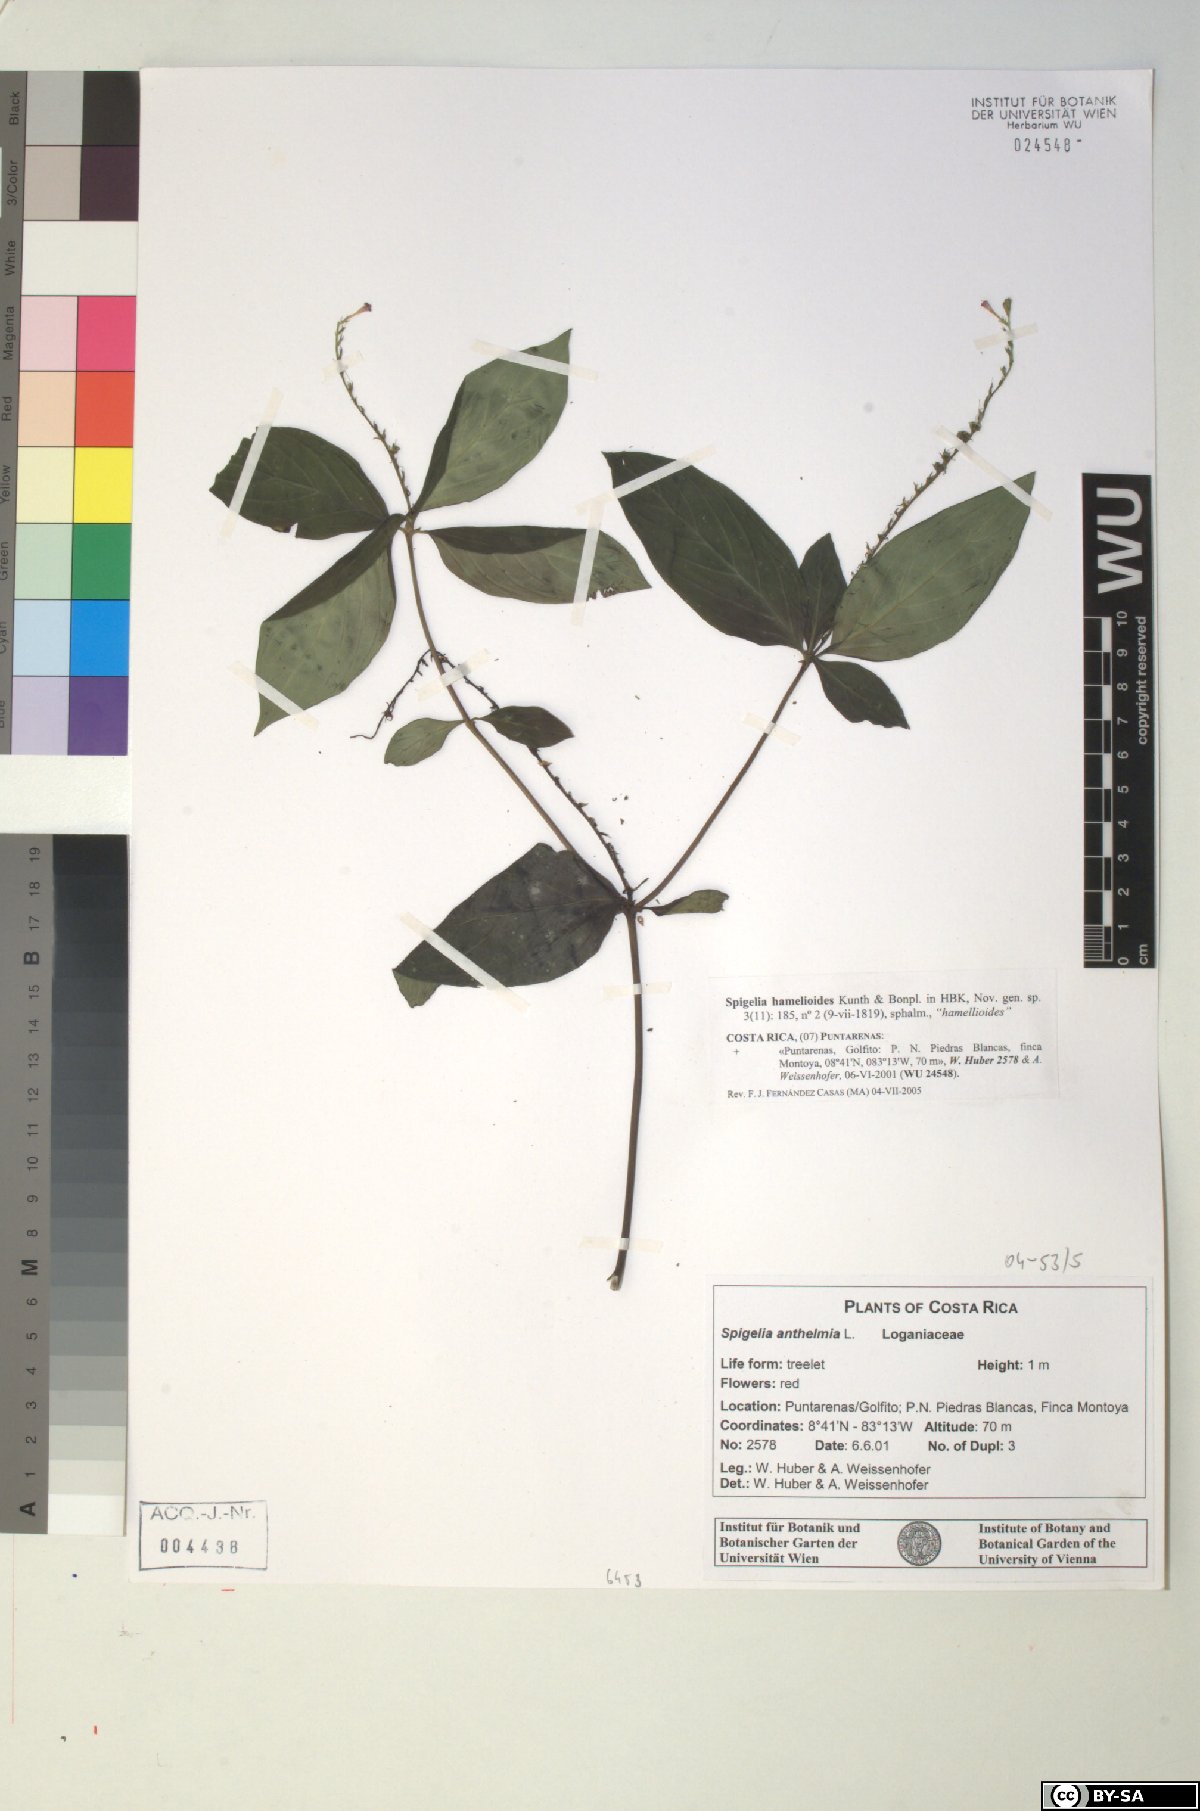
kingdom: Plantae
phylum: Tracheophyta
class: Magnoliopsida
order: Gentianales
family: Loganiaceae
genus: Spigelia
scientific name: Spigelia hamellioides
